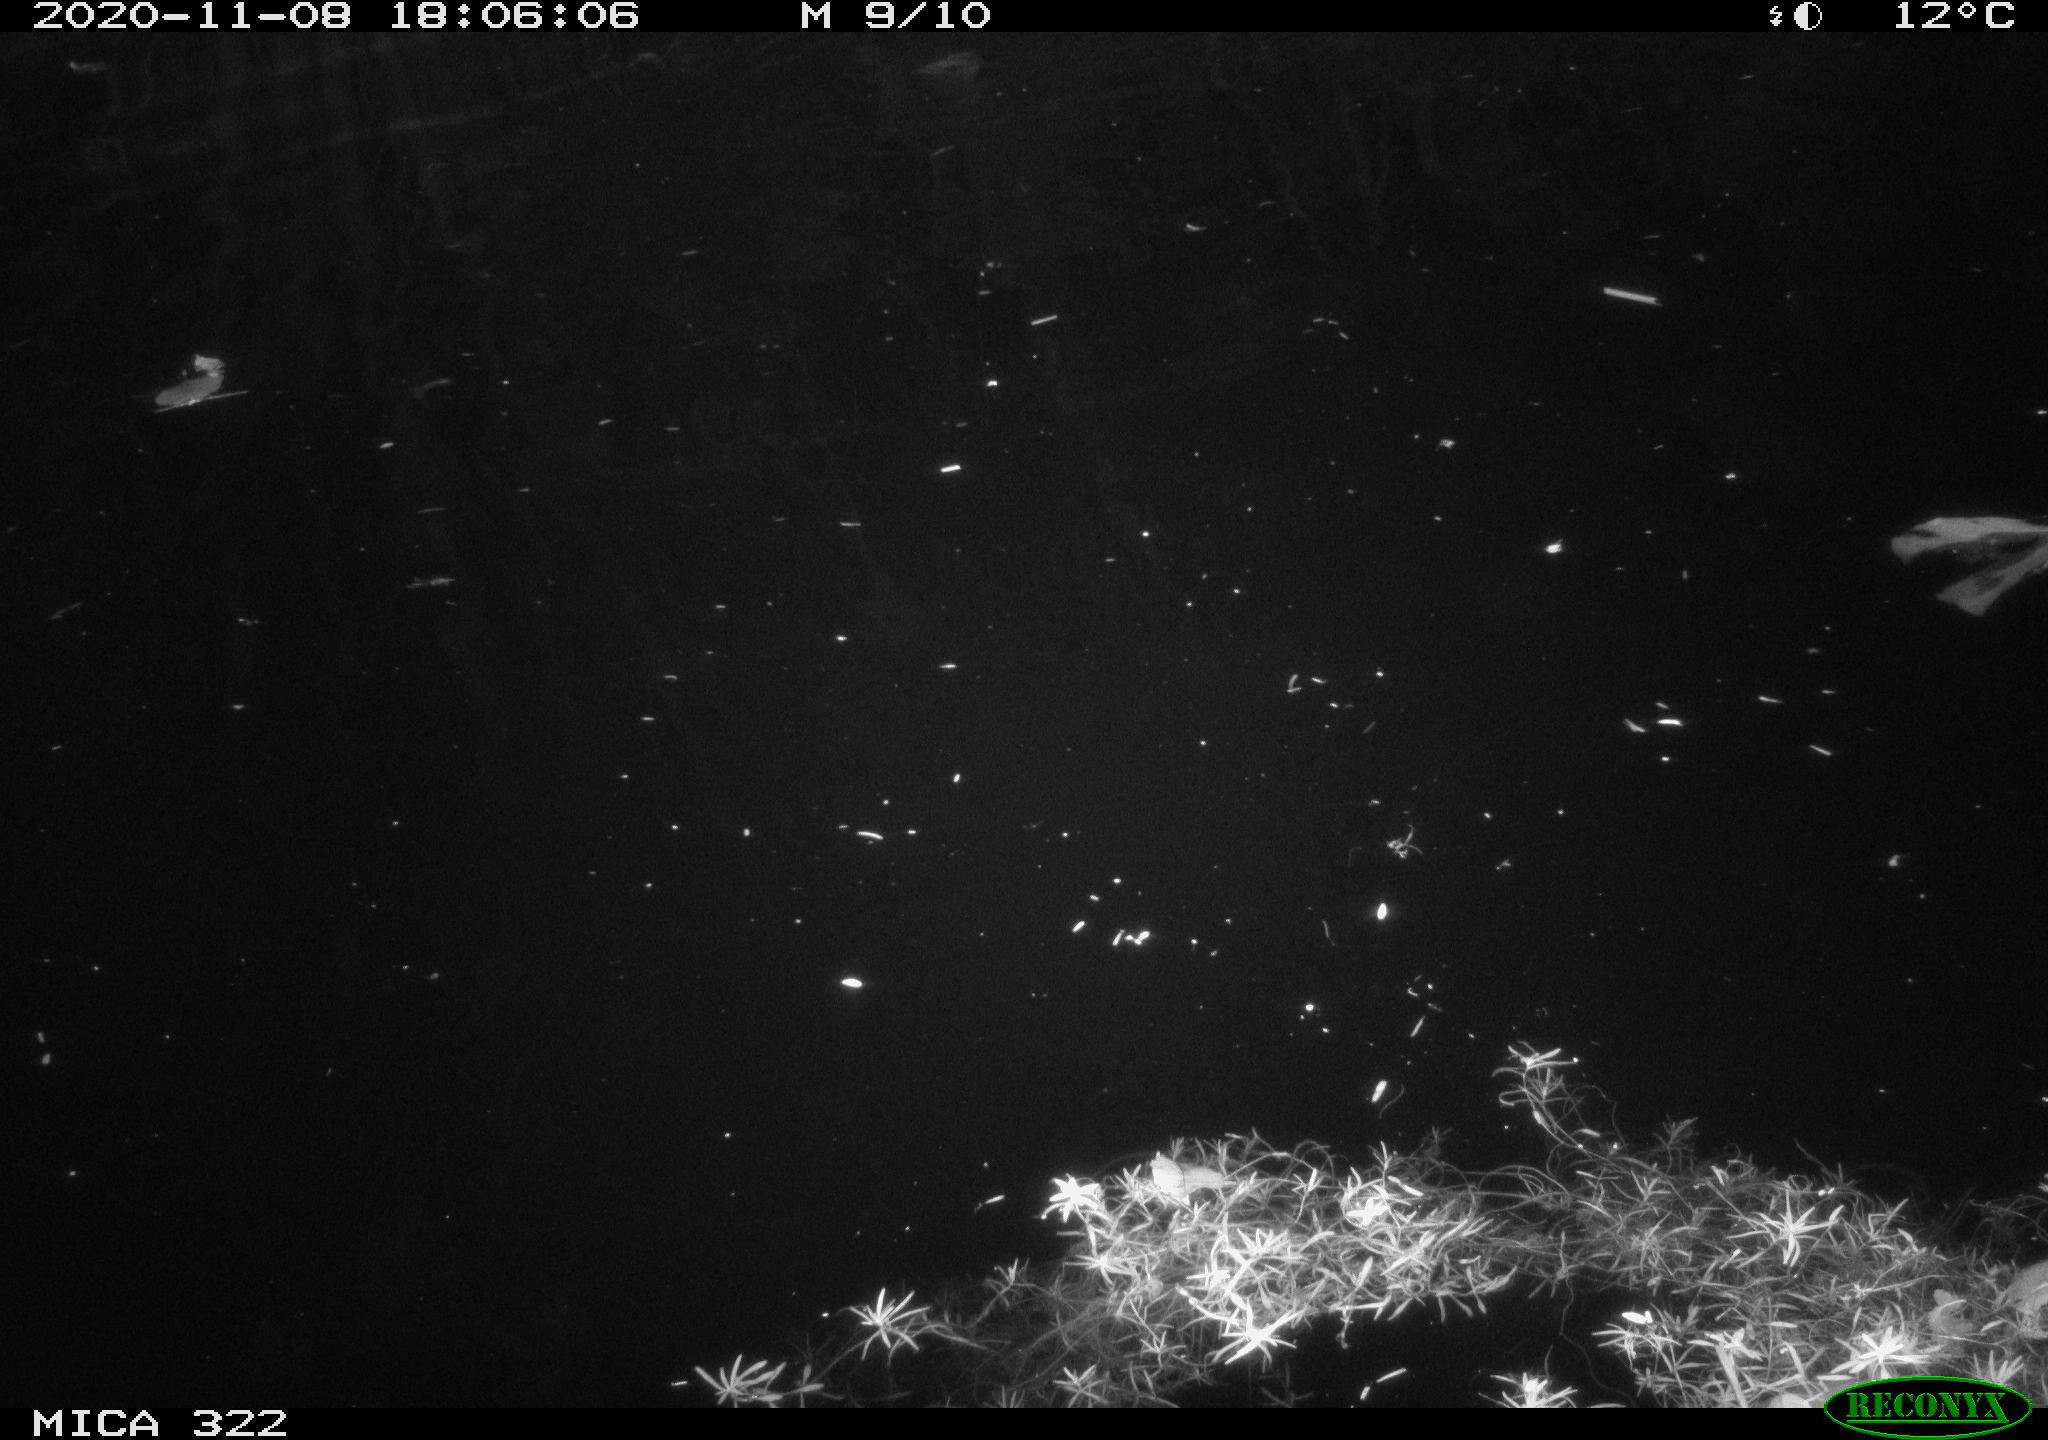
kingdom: Animalia
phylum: Chordata
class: Mammalia
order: Rodentia
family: Muridae
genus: Rattus
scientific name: Rattus norvegicus
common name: Brown rat
